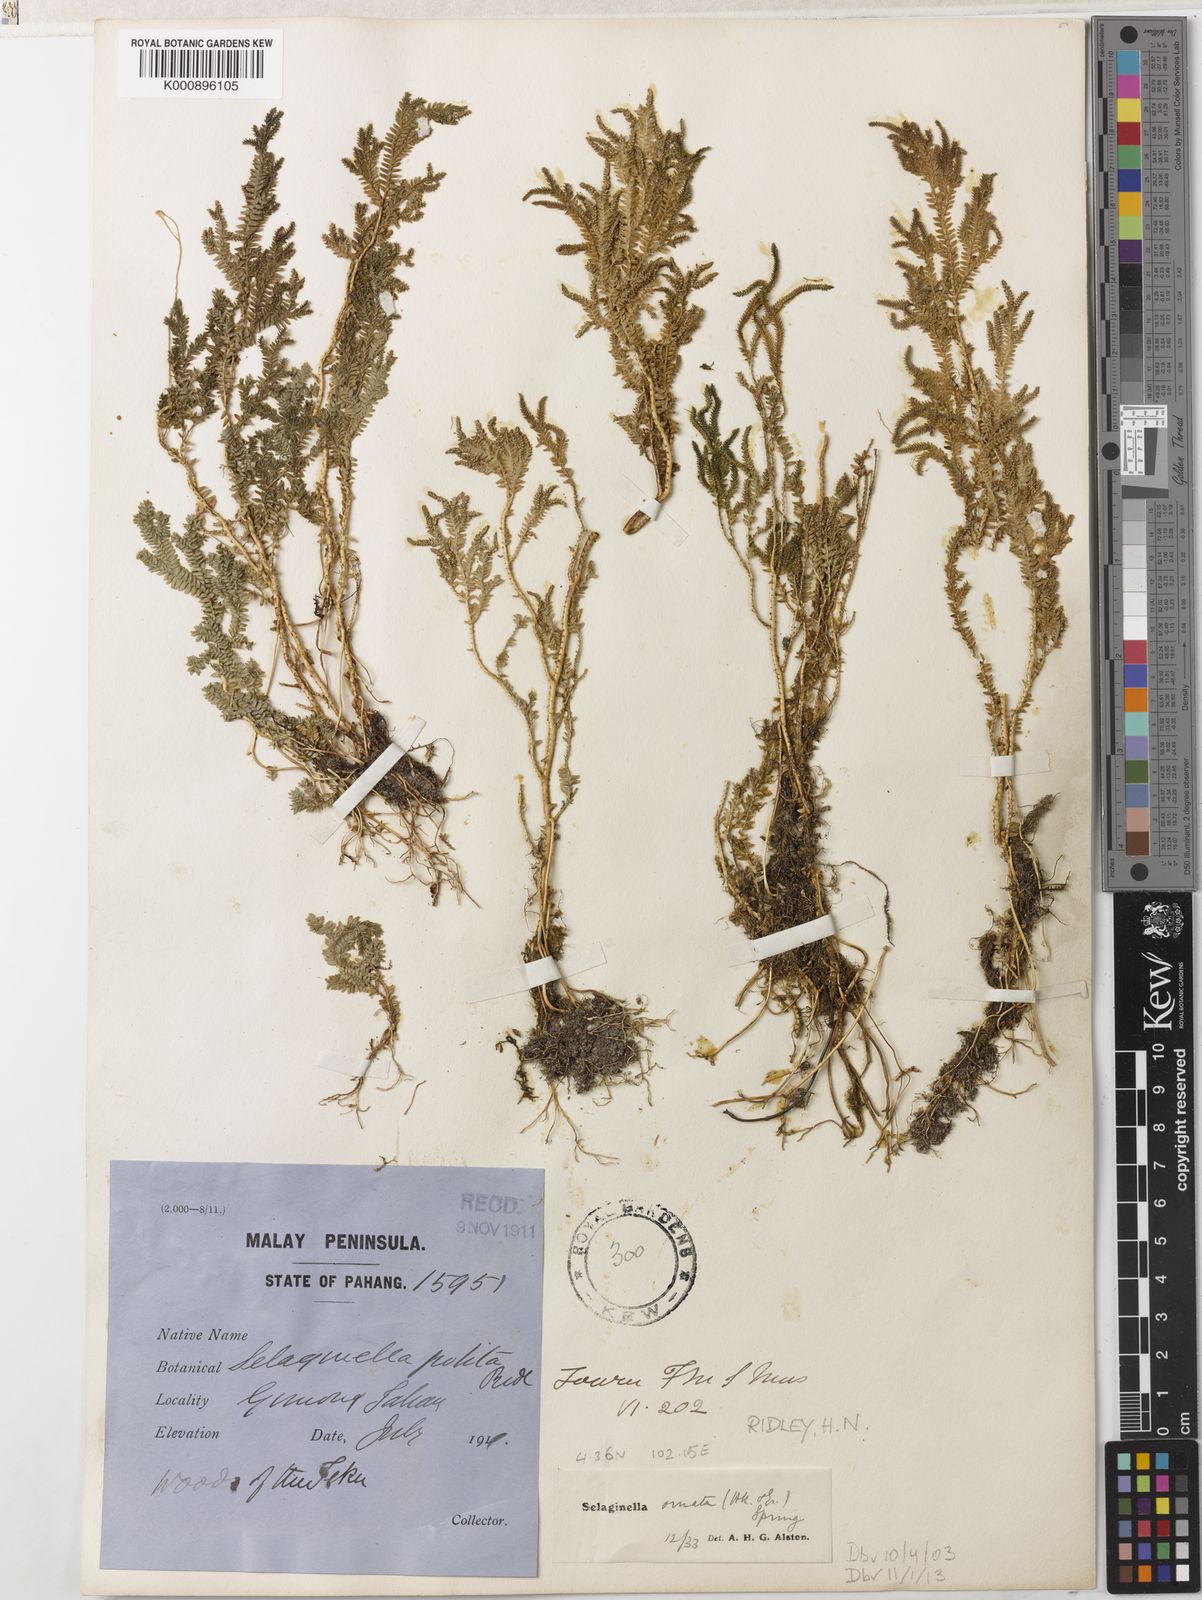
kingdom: Plantae
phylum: Tracheophyta
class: Lycopodiopsida
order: Selaginellales
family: Selaginellaceae
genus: Selaginella
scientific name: Selaginella ornata
